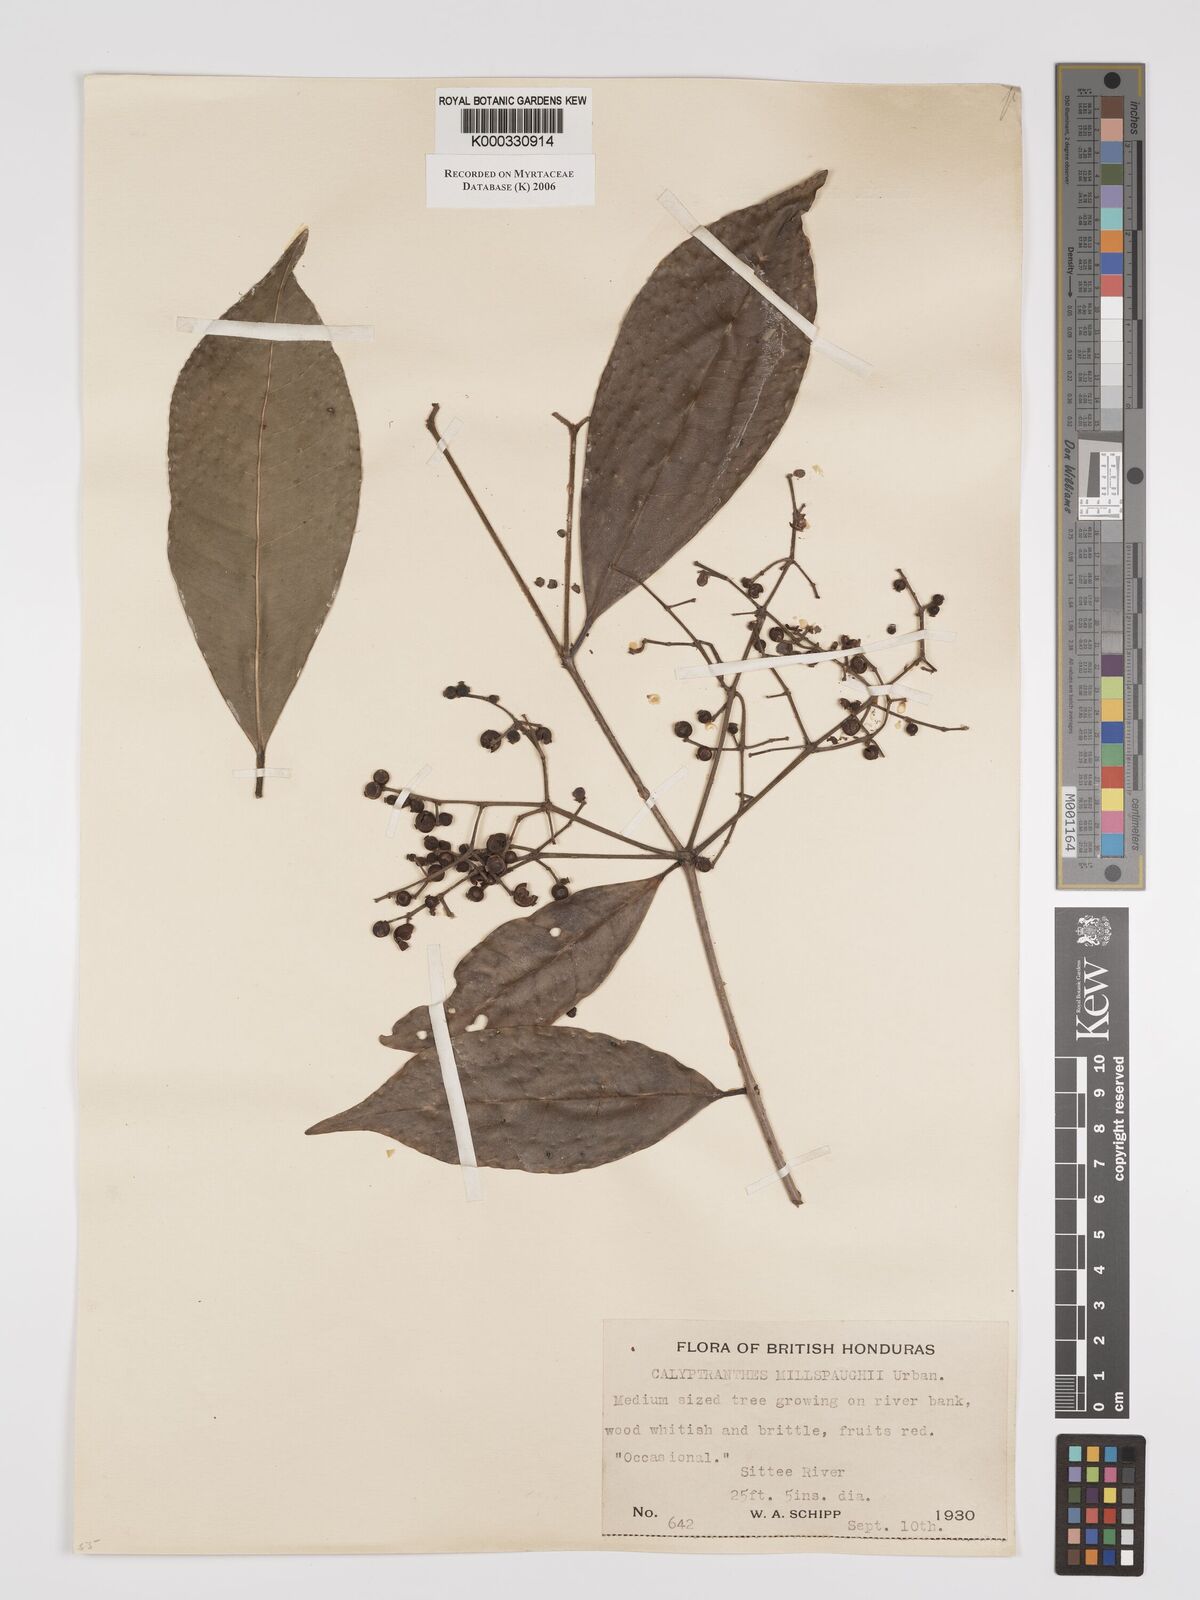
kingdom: Plantae
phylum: Tracheophyta
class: Magnoliopsida
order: Myrtales
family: Myrtaceae
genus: Myrcia
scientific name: Myrcia millspaughii
